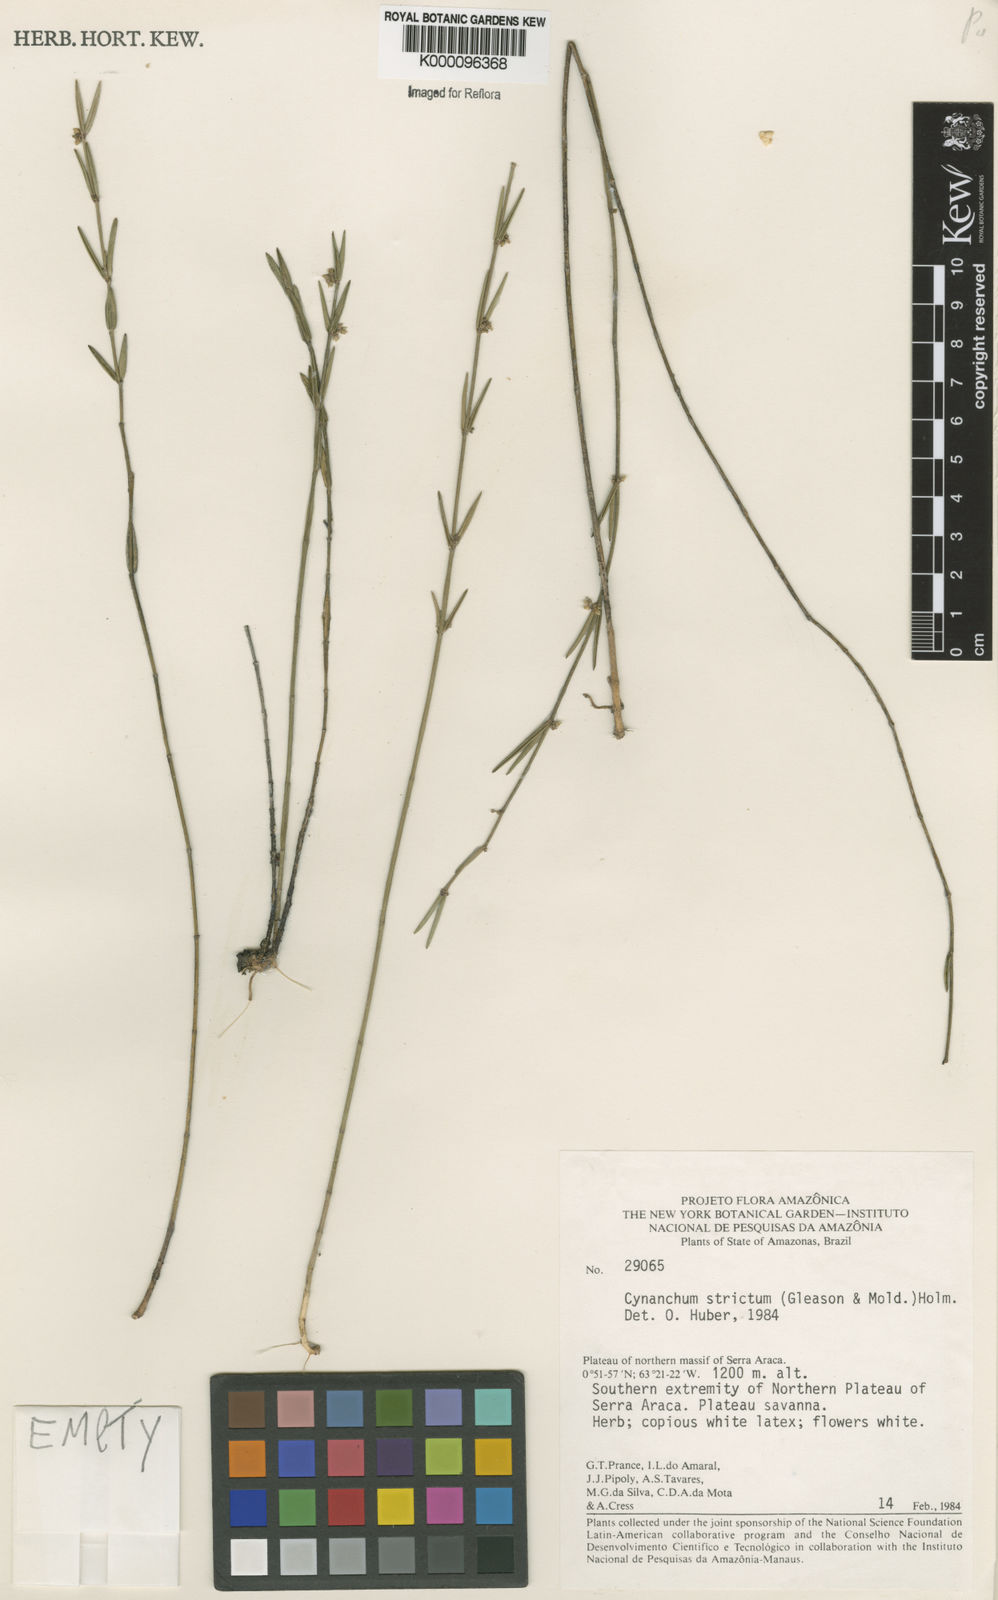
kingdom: Plantae
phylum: Tracheophyta
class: Magnoliopsida
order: Gentianales
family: Apocynaceae
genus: Tassadia
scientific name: Tassadia stricta
